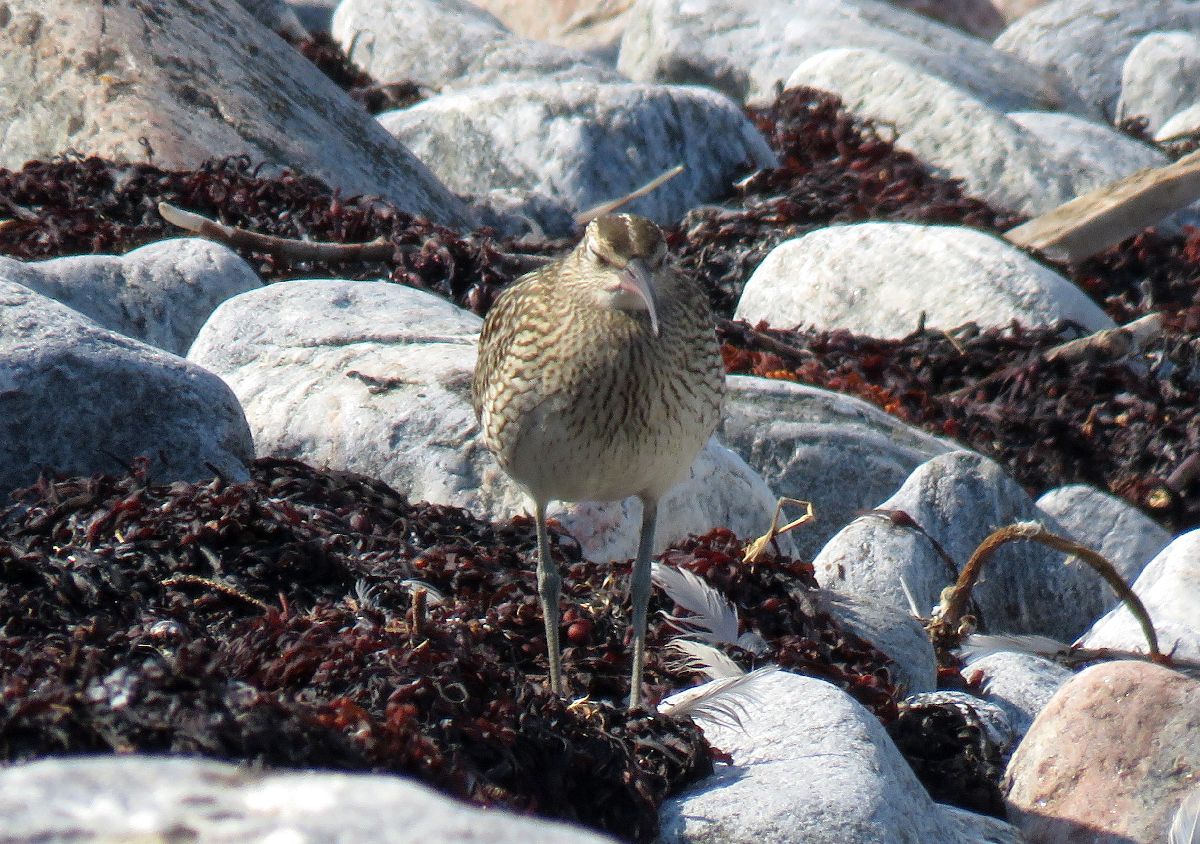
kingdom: Animalia
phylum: Chordata
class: Aves
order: Charadriiformes
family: Scolopacidae
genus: Numenius
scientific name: Numenius phaeopus
